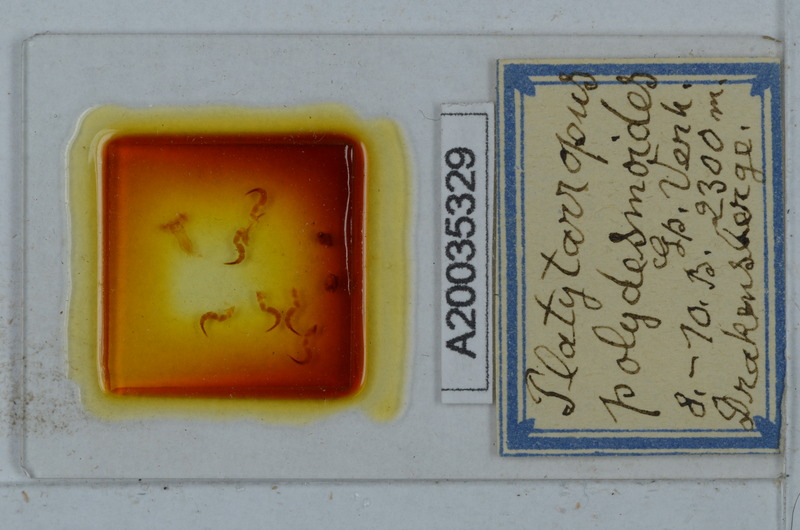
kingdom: Animalia
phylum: Arthropoda
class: Diplopoda
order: Polydesmida
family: Dalodesmidae
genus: Platytarropus
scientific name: Platytarropus polydesmoides
